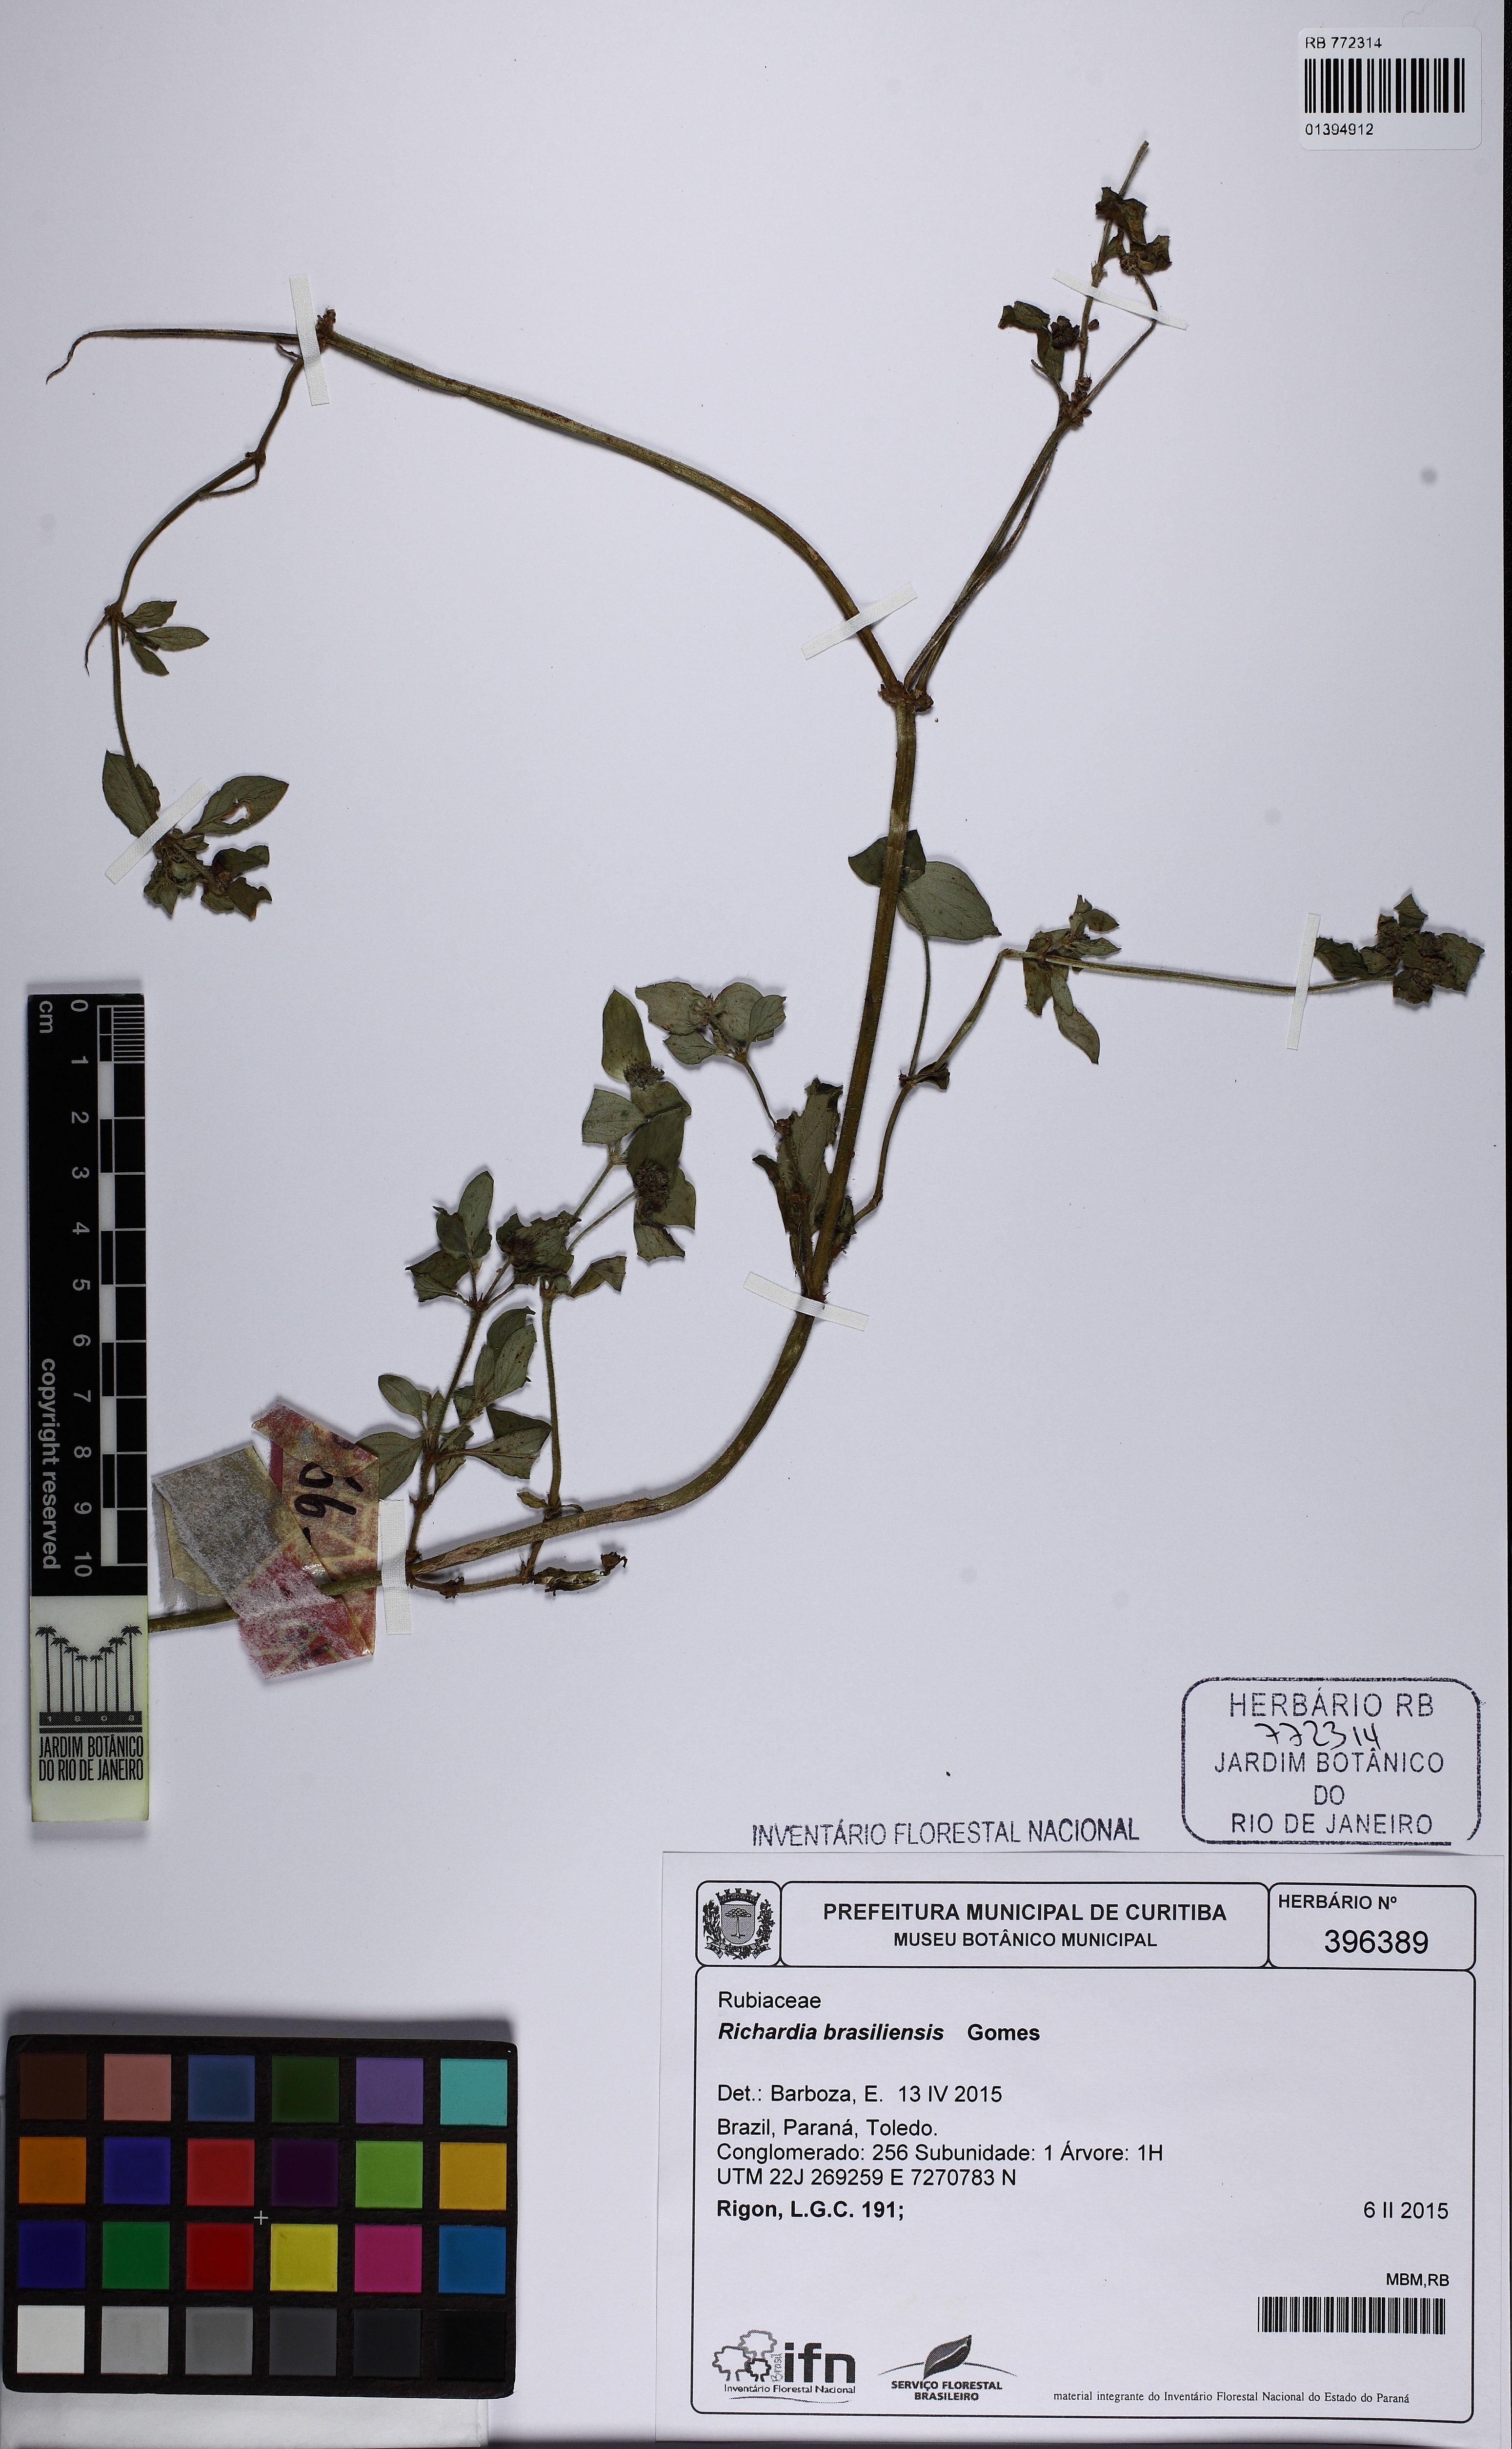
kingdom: Plantae
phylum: Tracheophyta
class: Magnoliopsida
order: Gentianales
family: Rubiaceae
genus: Richardia
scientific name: Richardia brasiliensis
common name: Tropical mexican clover
